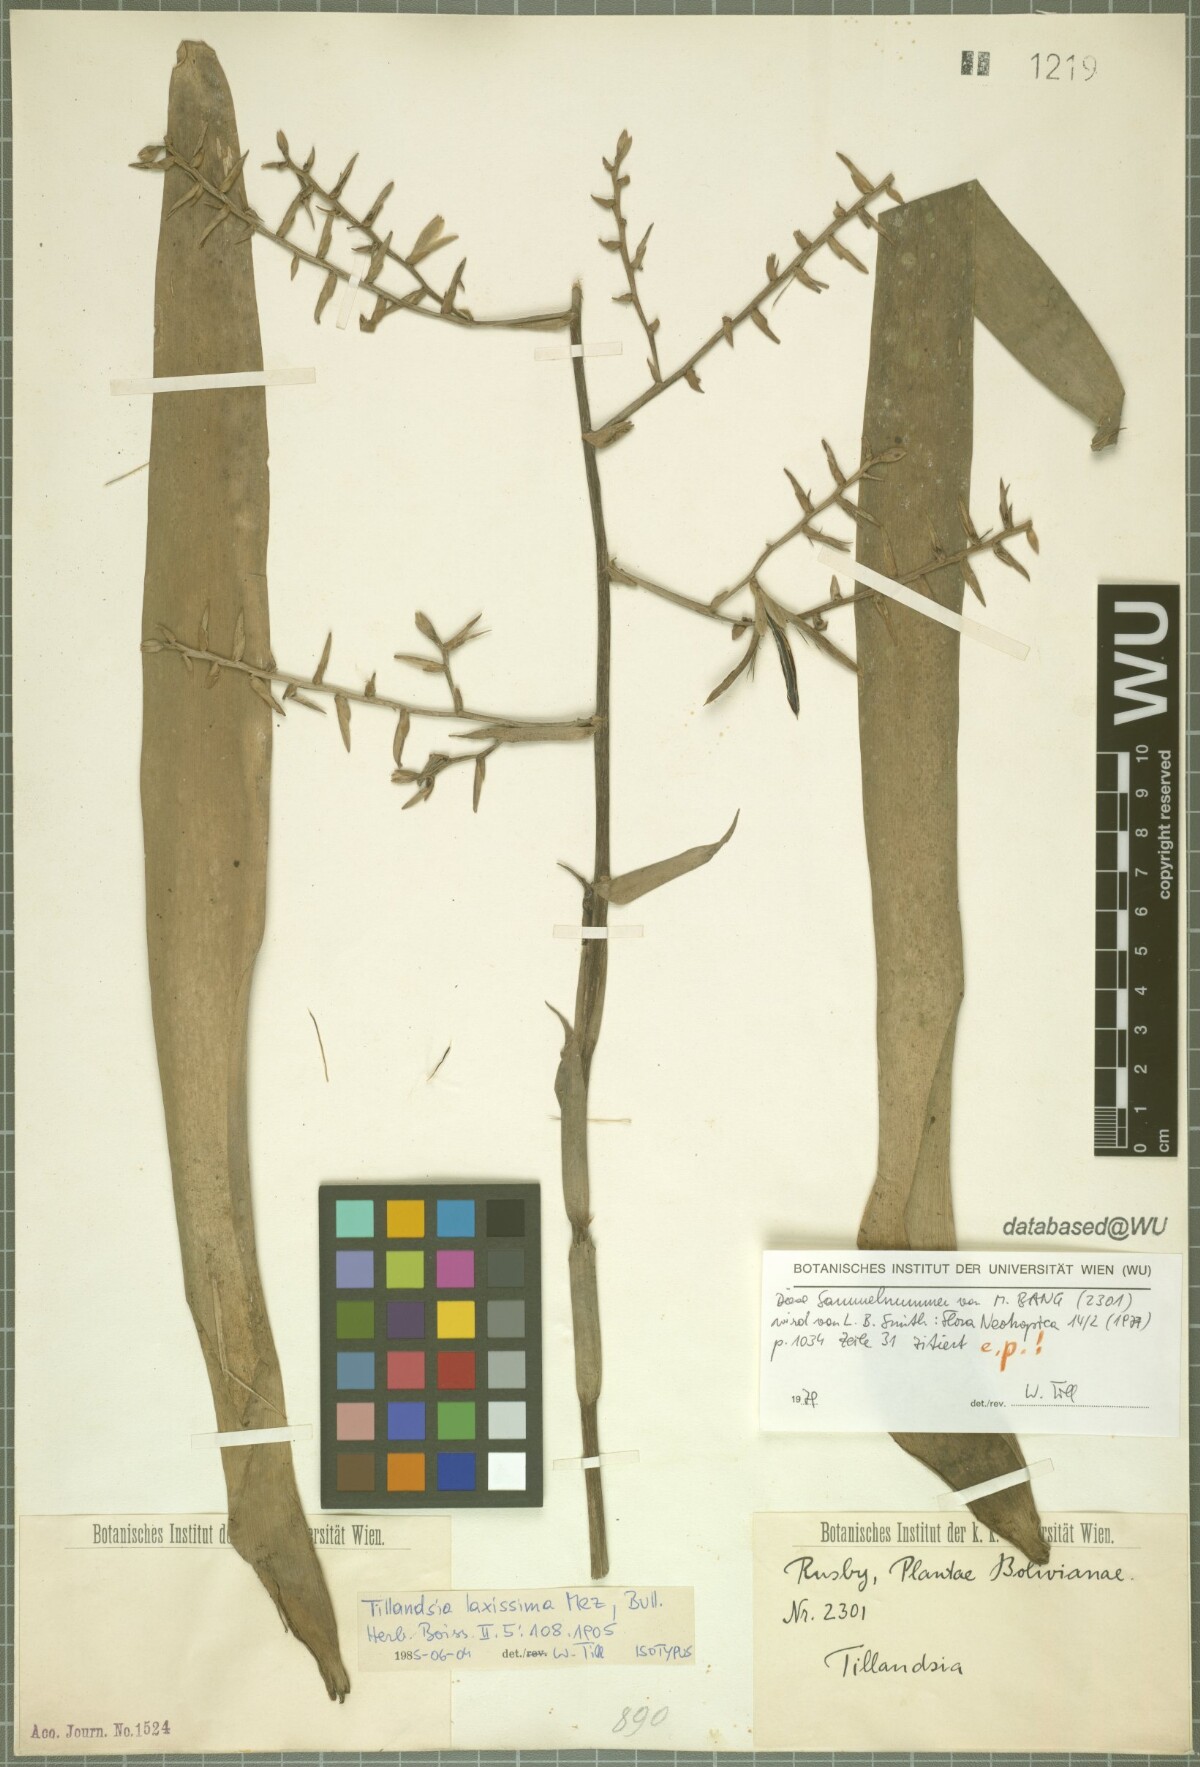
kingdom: Plantae
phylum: Tracheophyta
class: Liliopsida
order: Poales
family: Bromeliaceae
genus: Barfussia
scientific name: Barfussia laxissima
